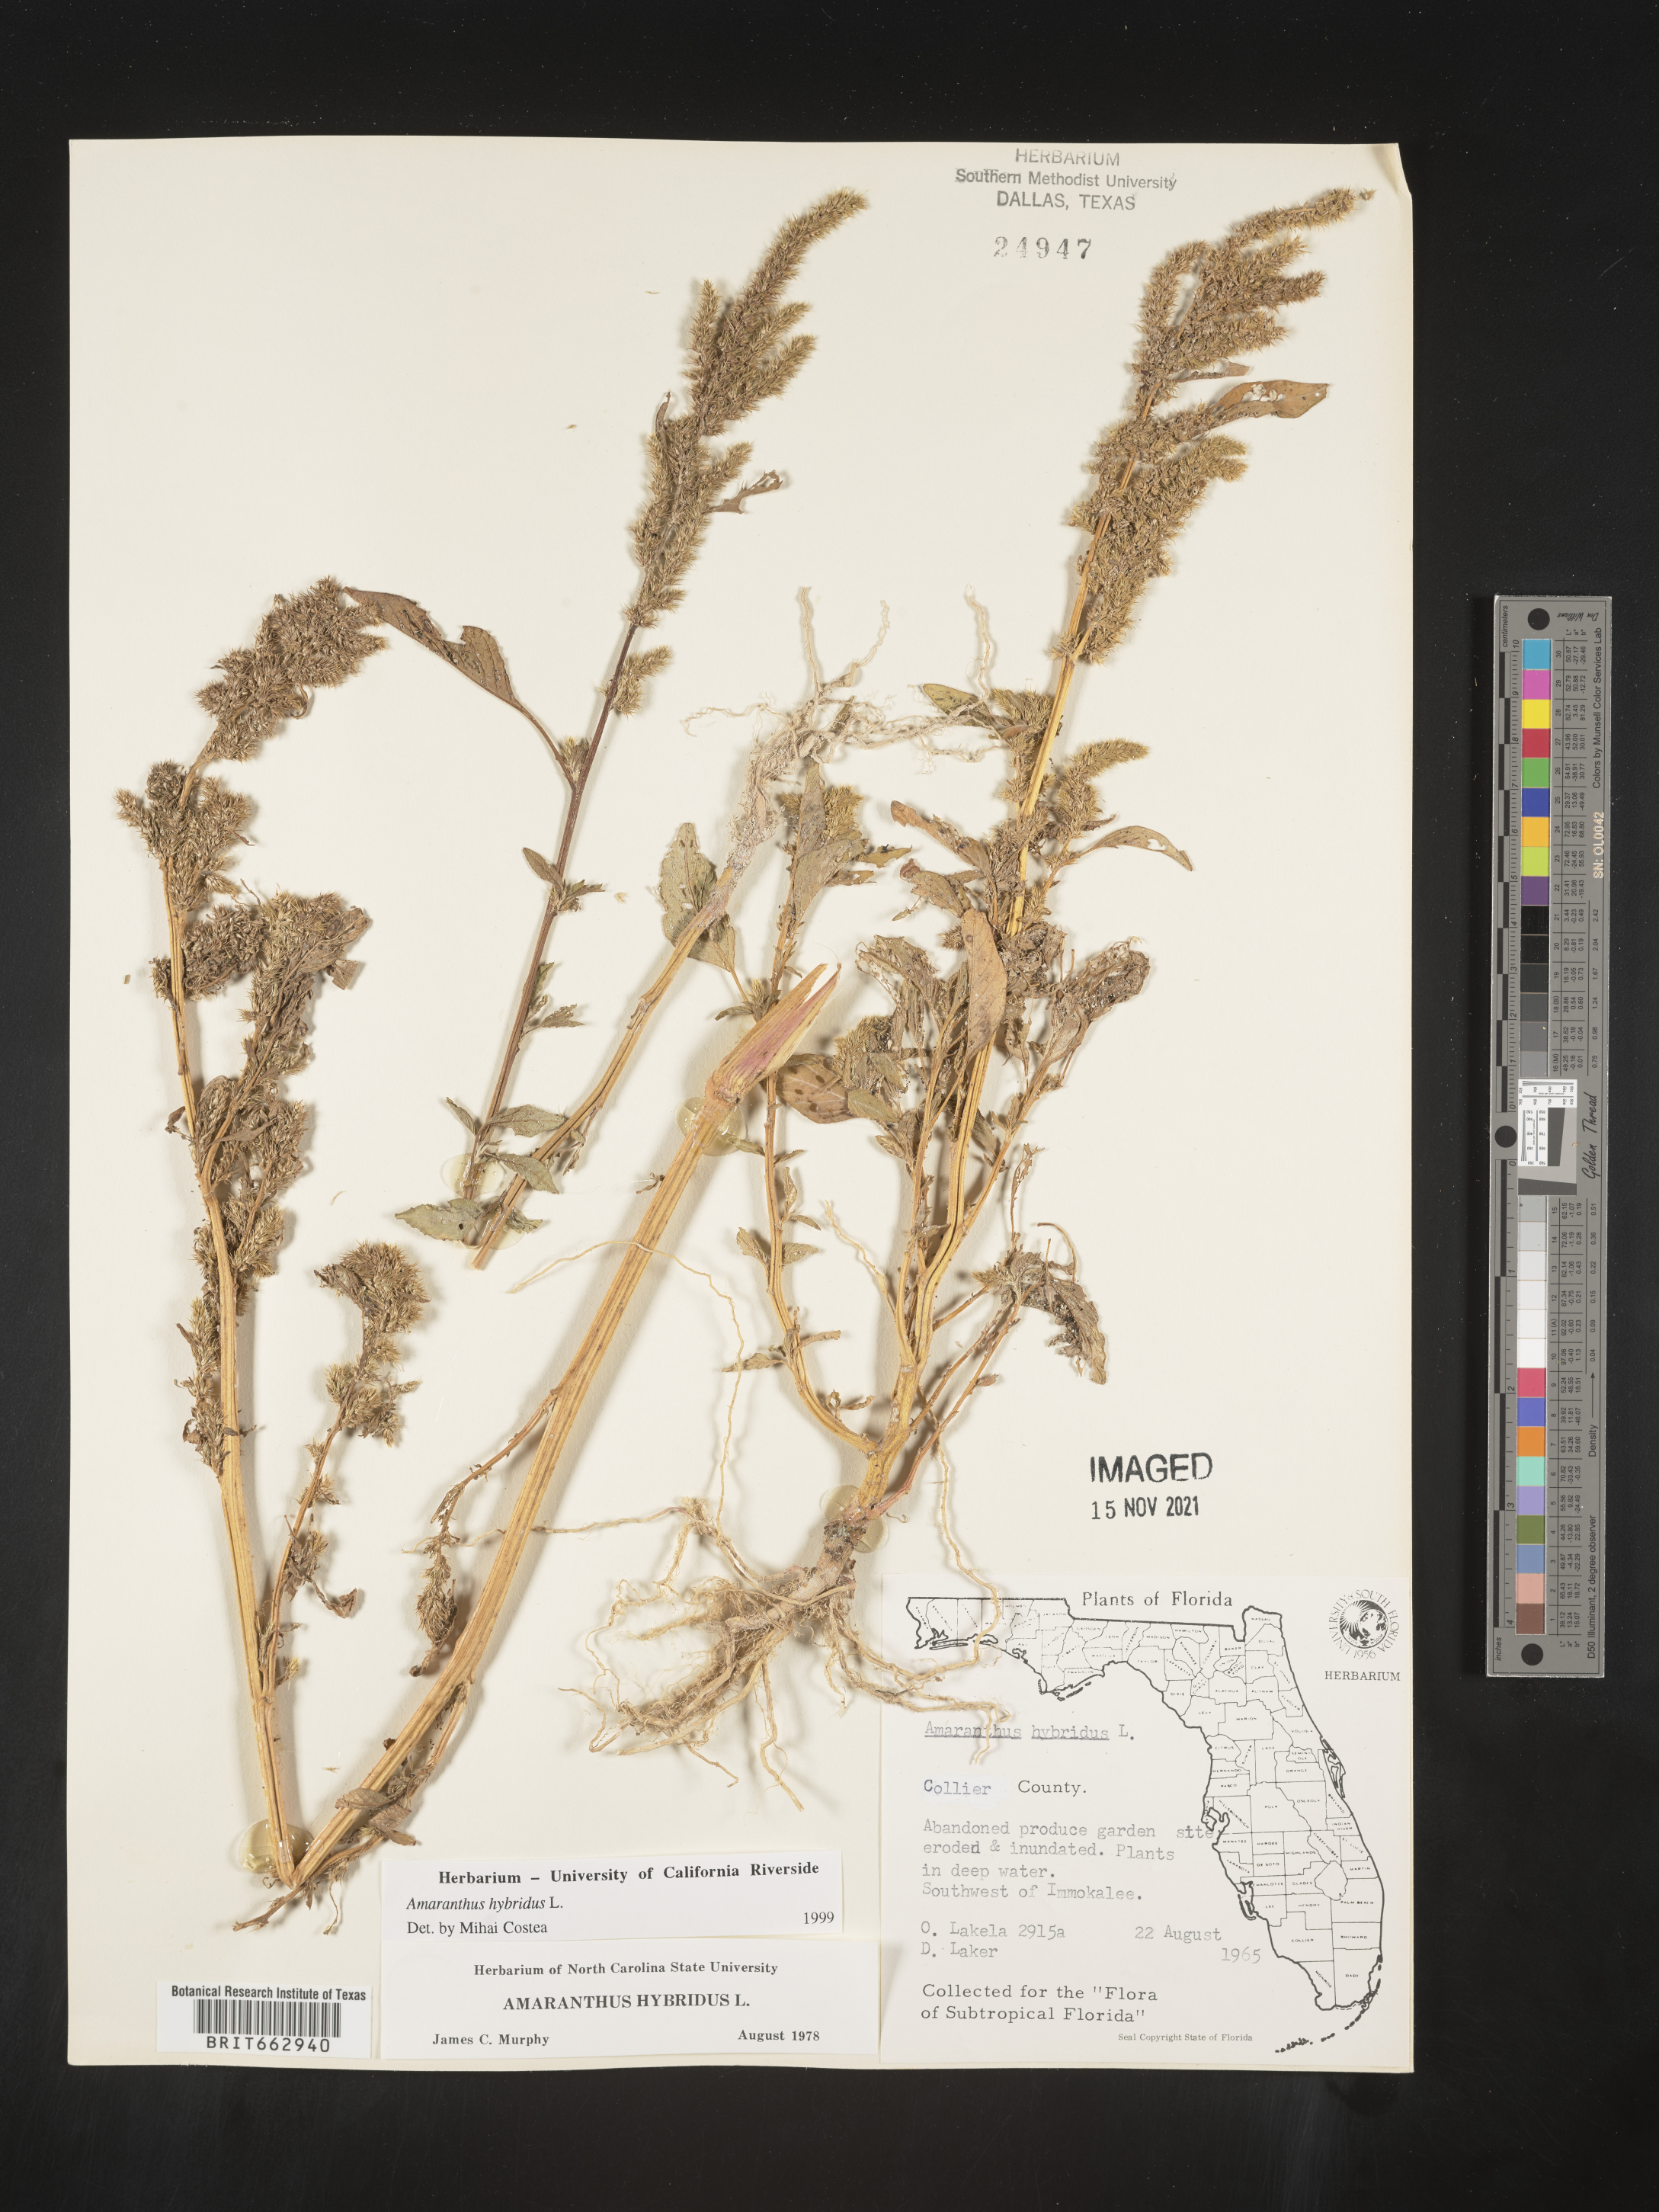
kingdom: Plantae
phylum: Tracheophyta
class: Magnoliopsida
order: Caryophyllales
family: Amaranthaceae
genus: Amaranthus
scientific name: Amaranthus hybridus
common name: Green amaranth
